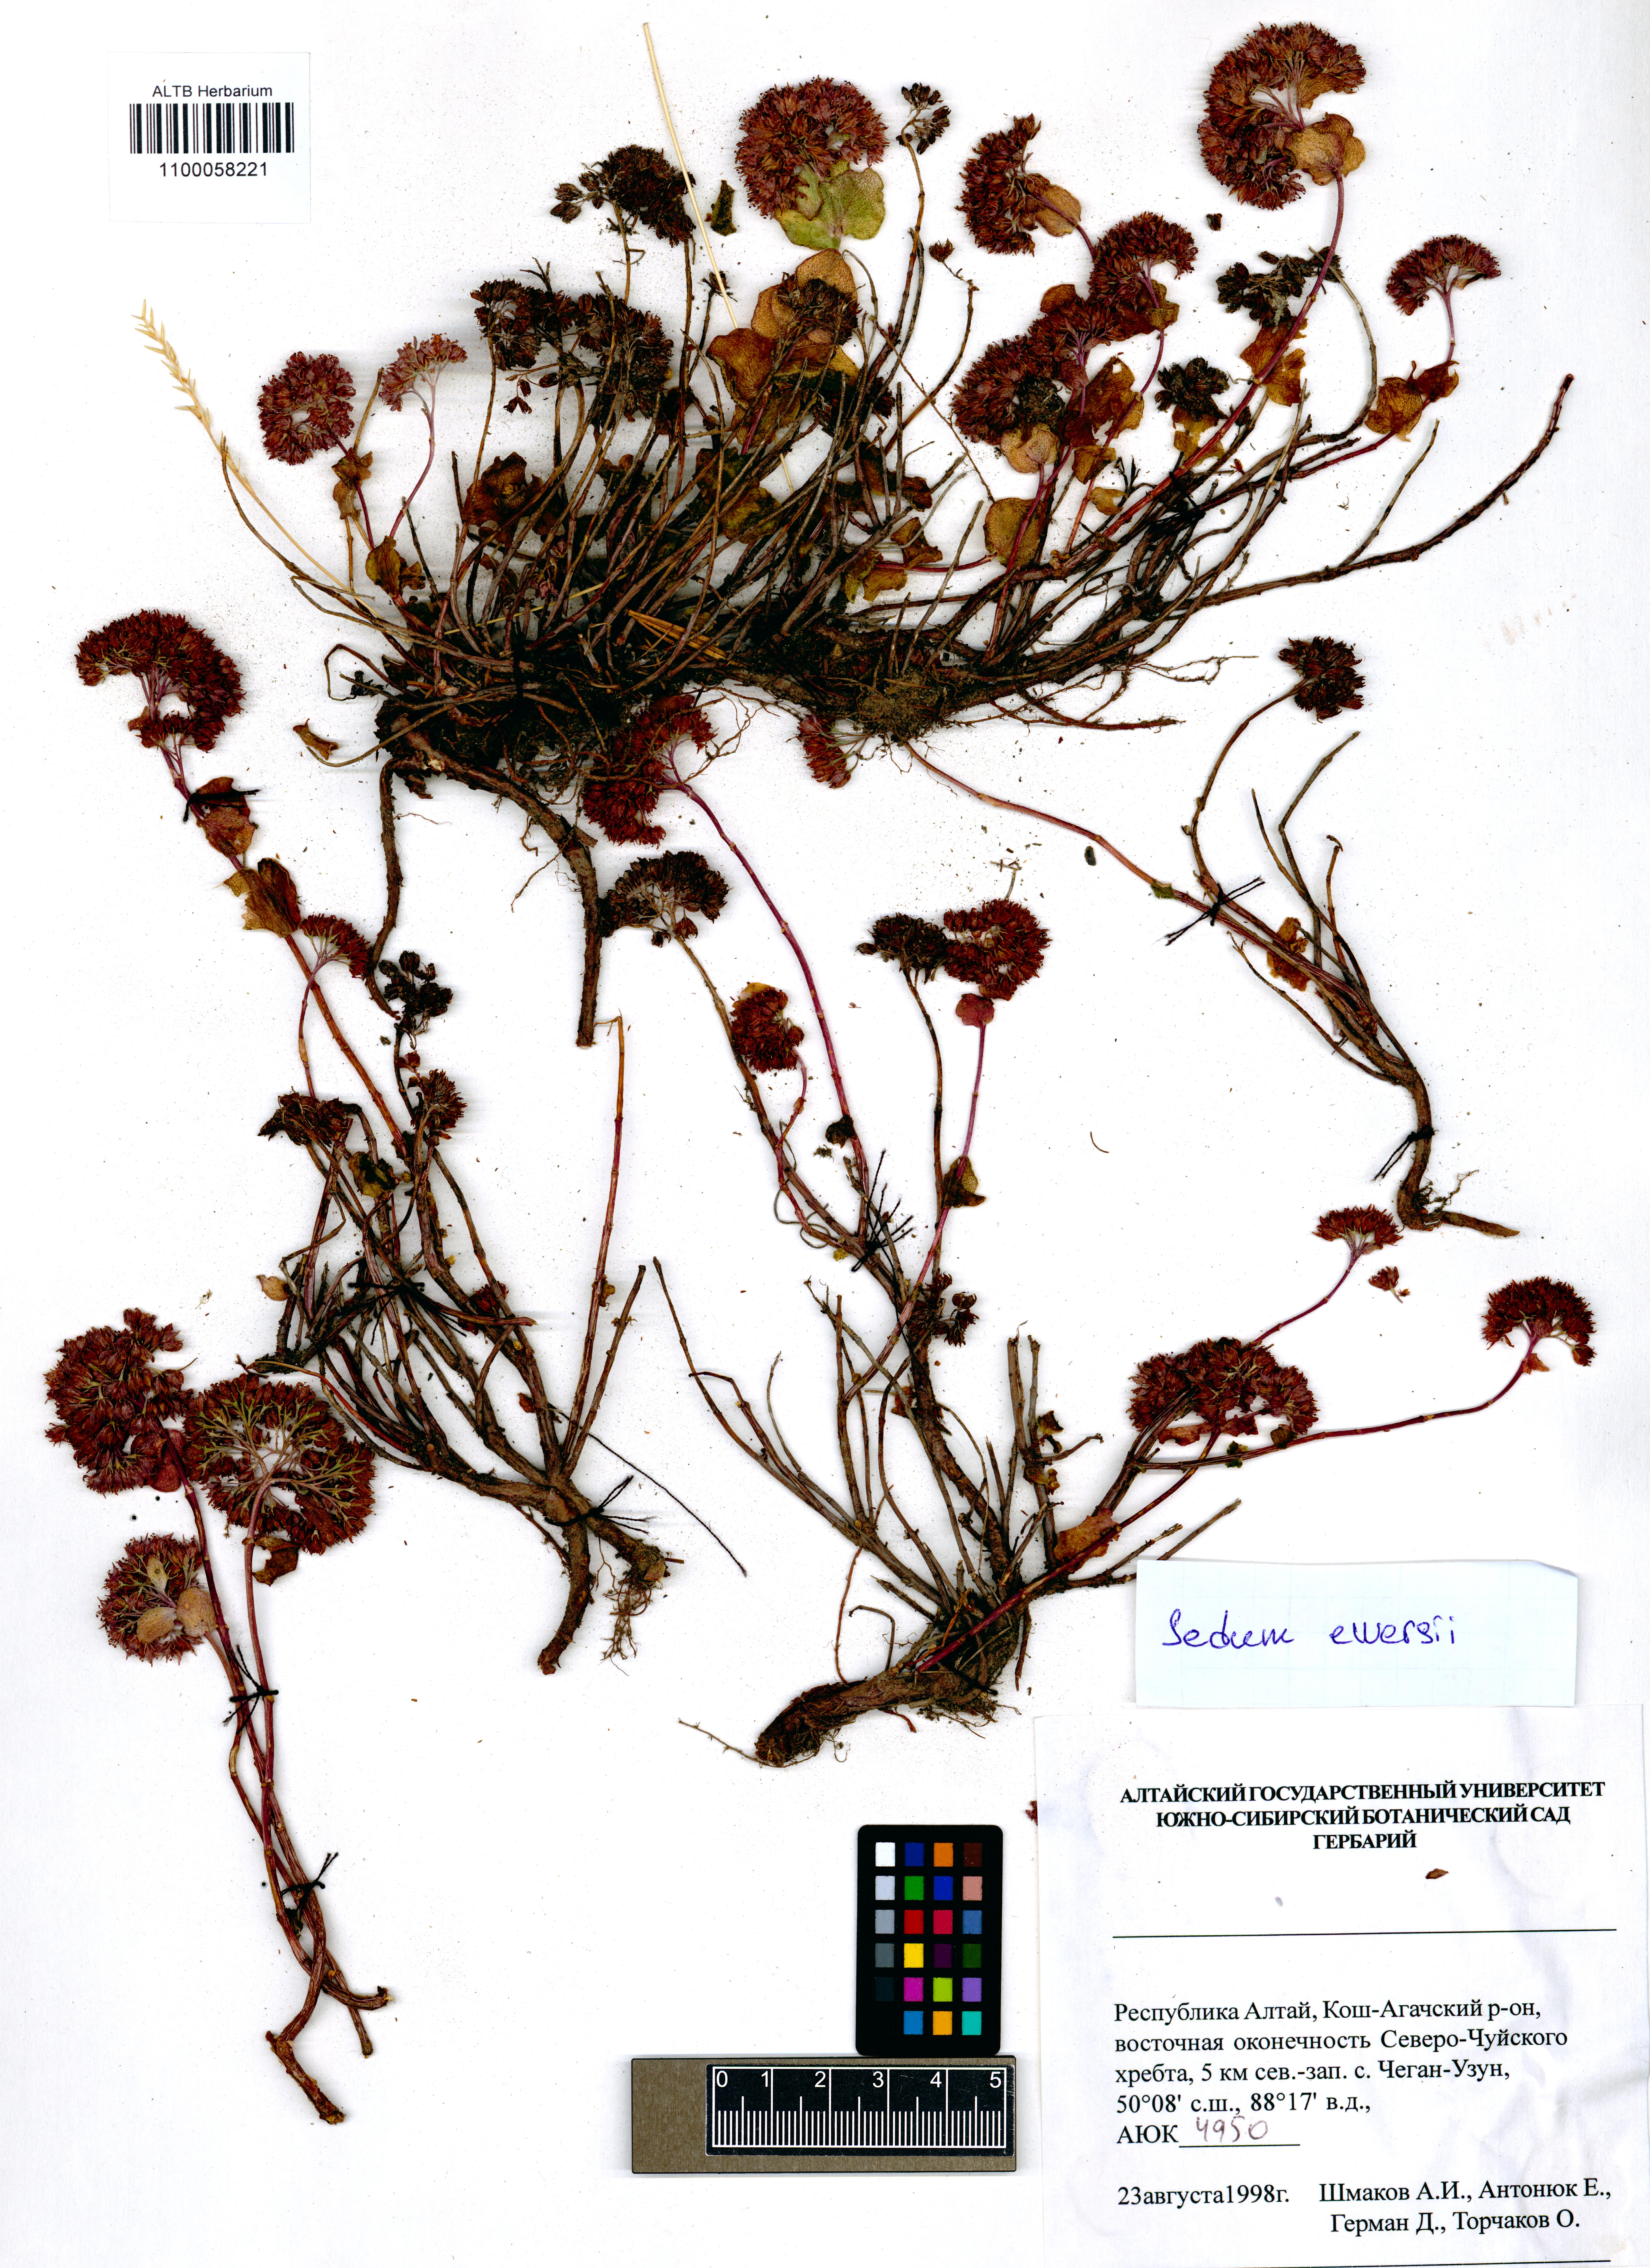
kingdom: Plantae
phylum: Tracheophyta
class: Magnoliopsida
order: Saxifragales
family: Crassulaceae
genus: Hylotelephium
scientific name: Hylotelephium ewersii
